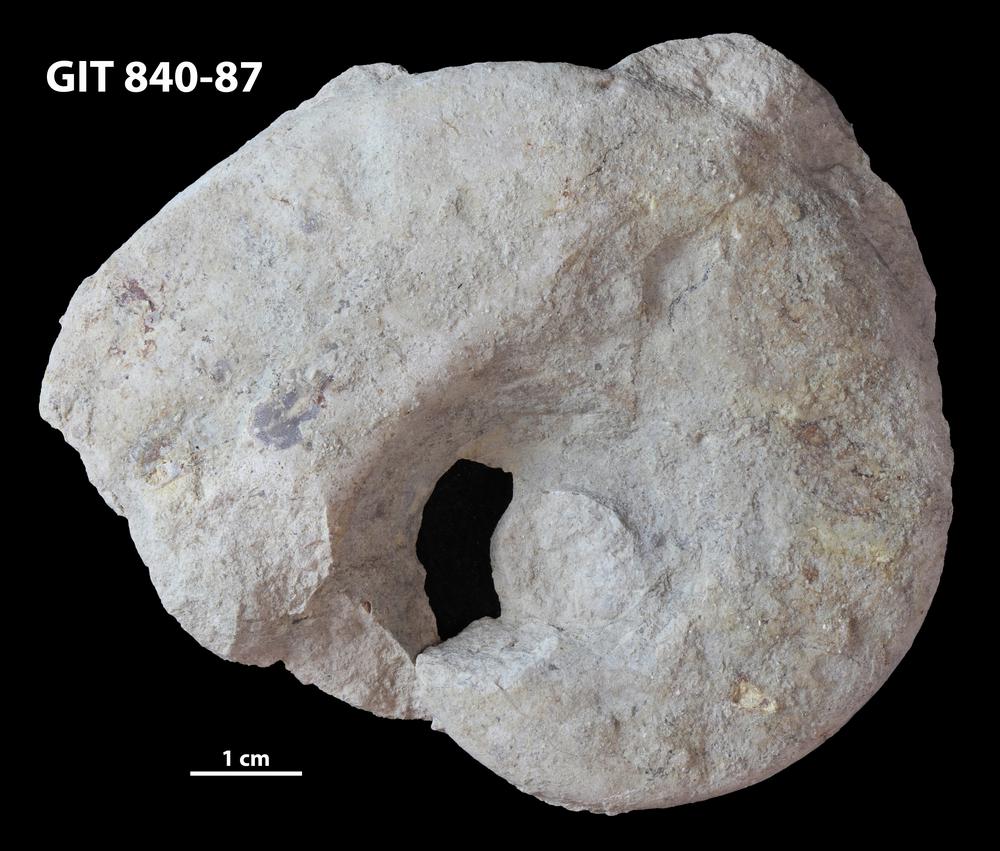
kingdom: Animalia
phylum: Mollusca
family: Macluritidae
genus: Maclurites
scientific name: Maclurites Maclurea neritoides
